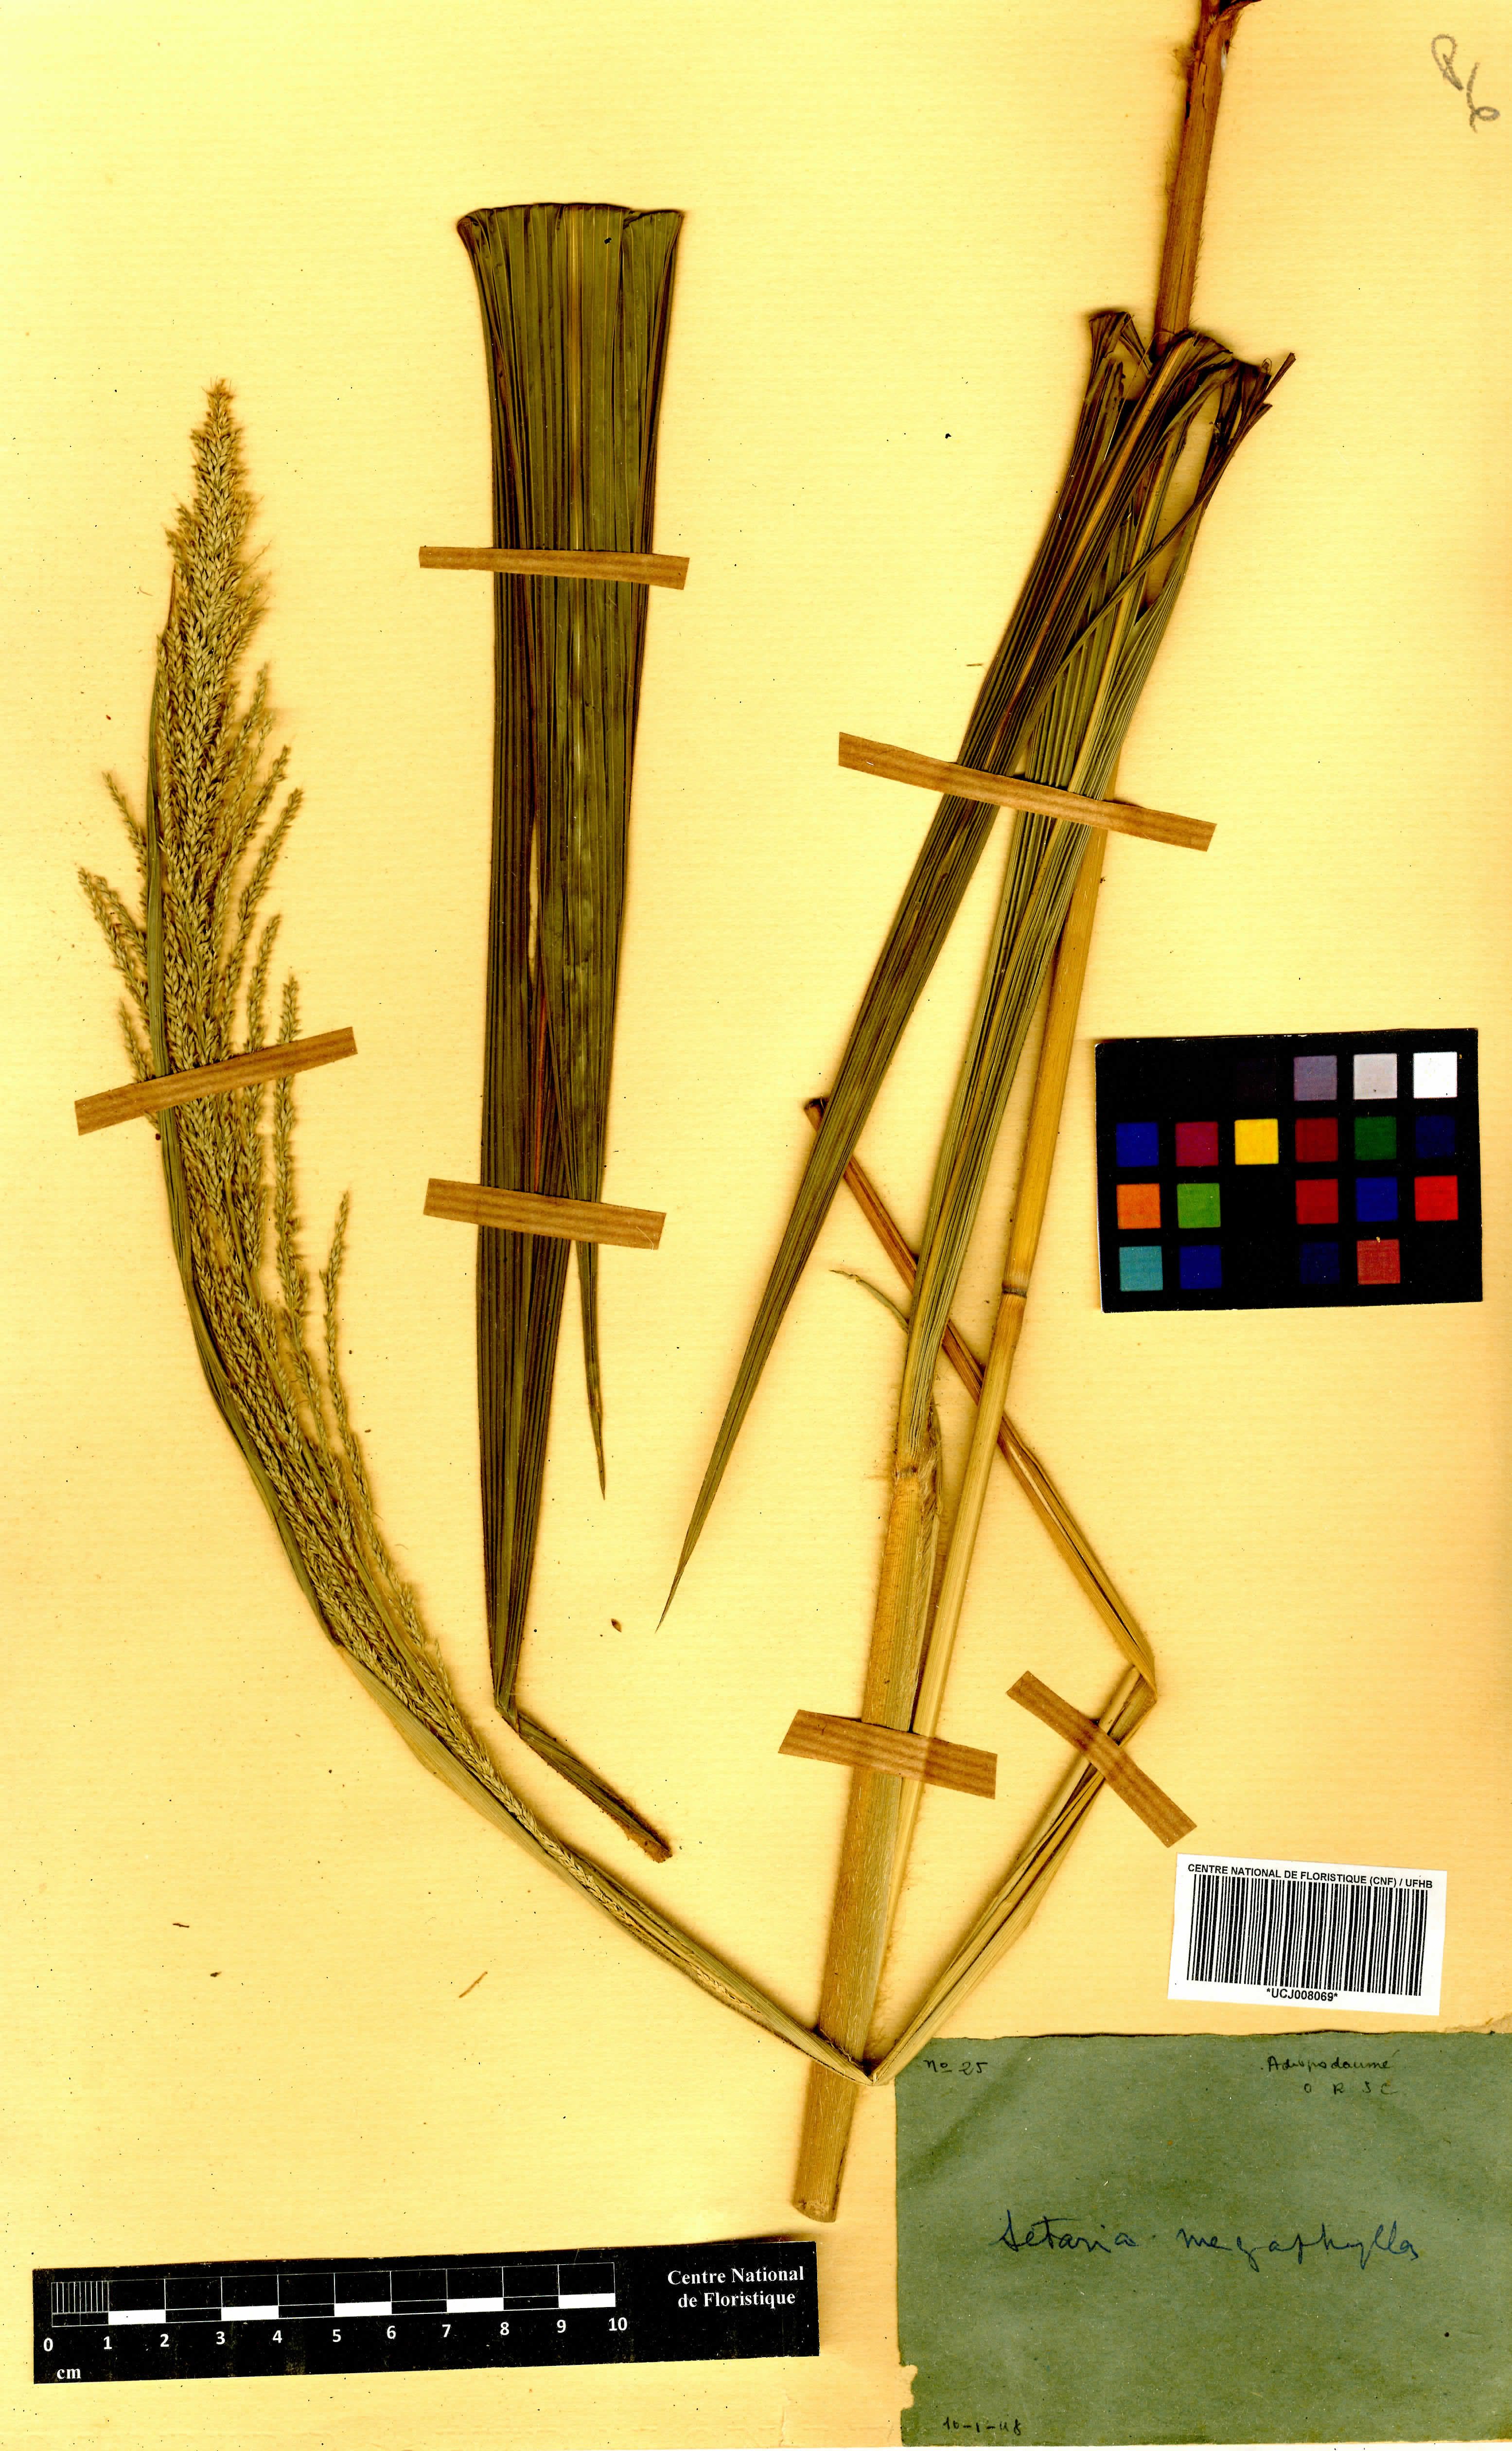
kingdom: Plantae
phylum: Tracheophyta
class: Liliopsida
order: Poales
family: Poaceae
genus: Setaria
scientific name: Setaria longiseta
